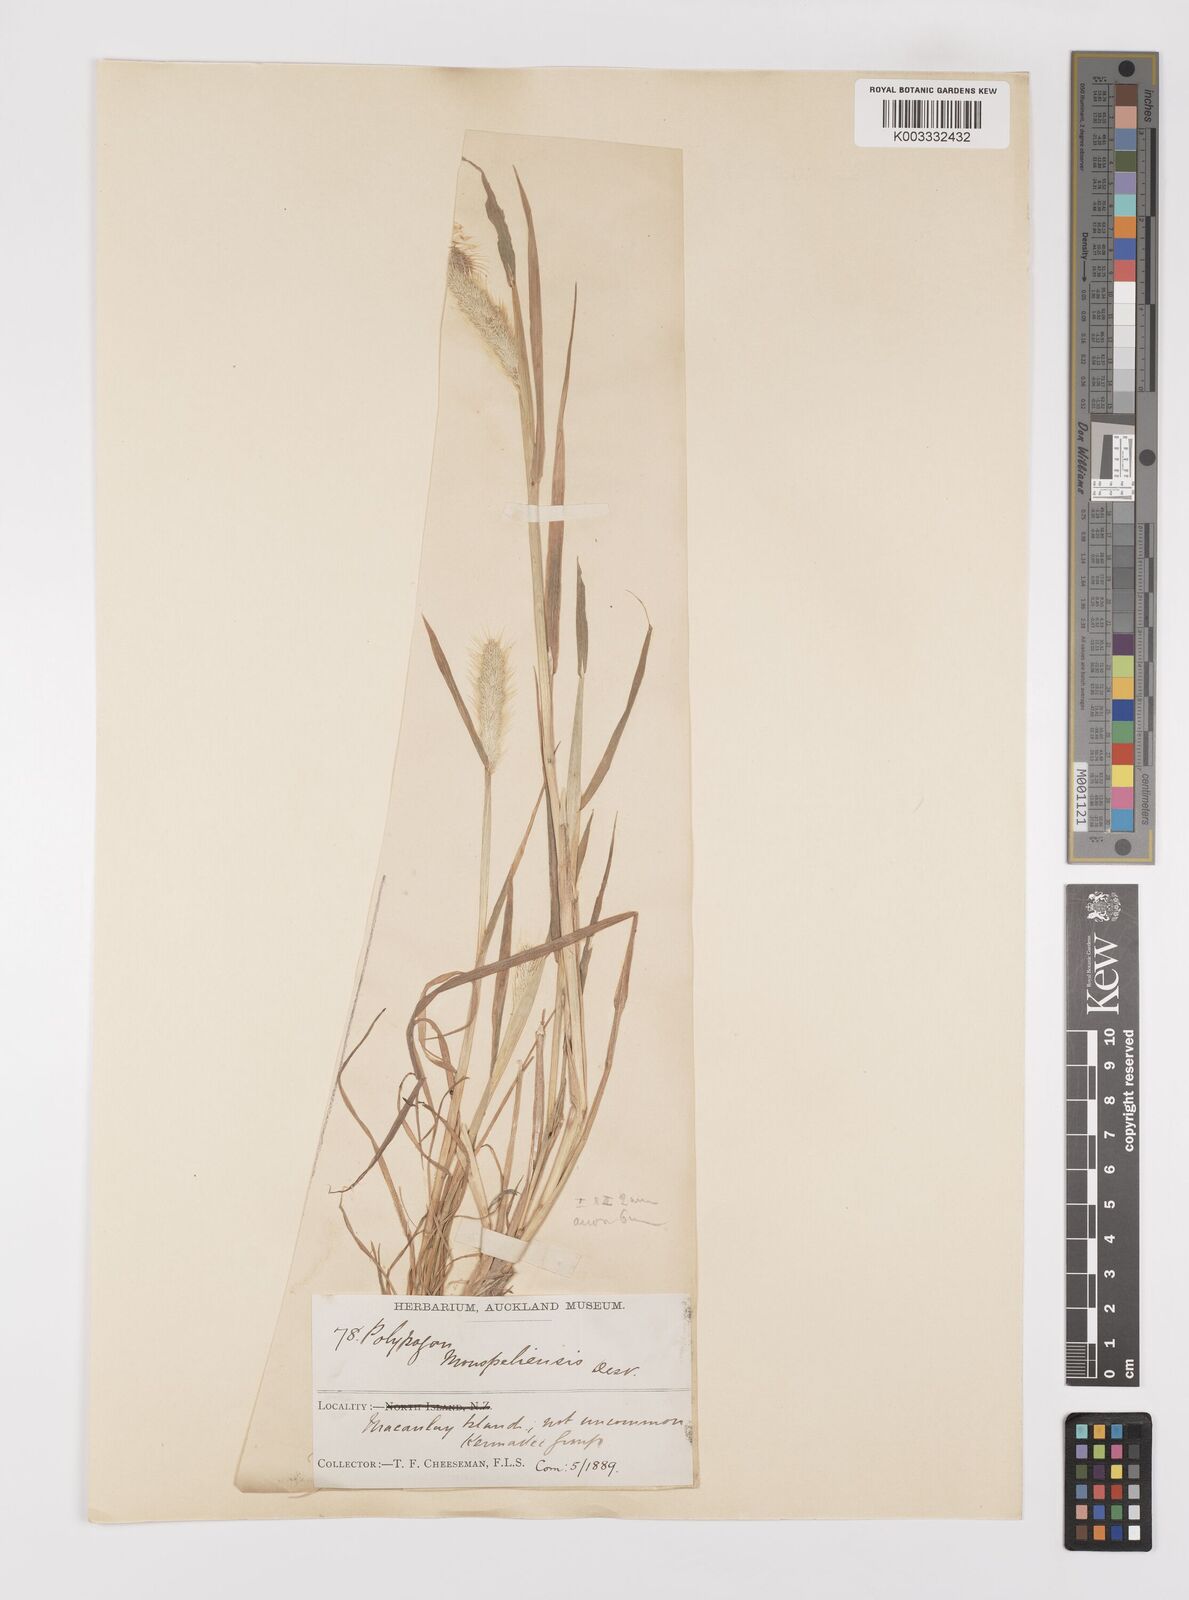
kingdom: Plantae
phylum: Tracheophyta
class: Liliopsida
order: Poales
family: Poaceae
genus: Polypogon
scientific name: Polypogon monspeliensis
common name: Annual rabbitsfoot grass
